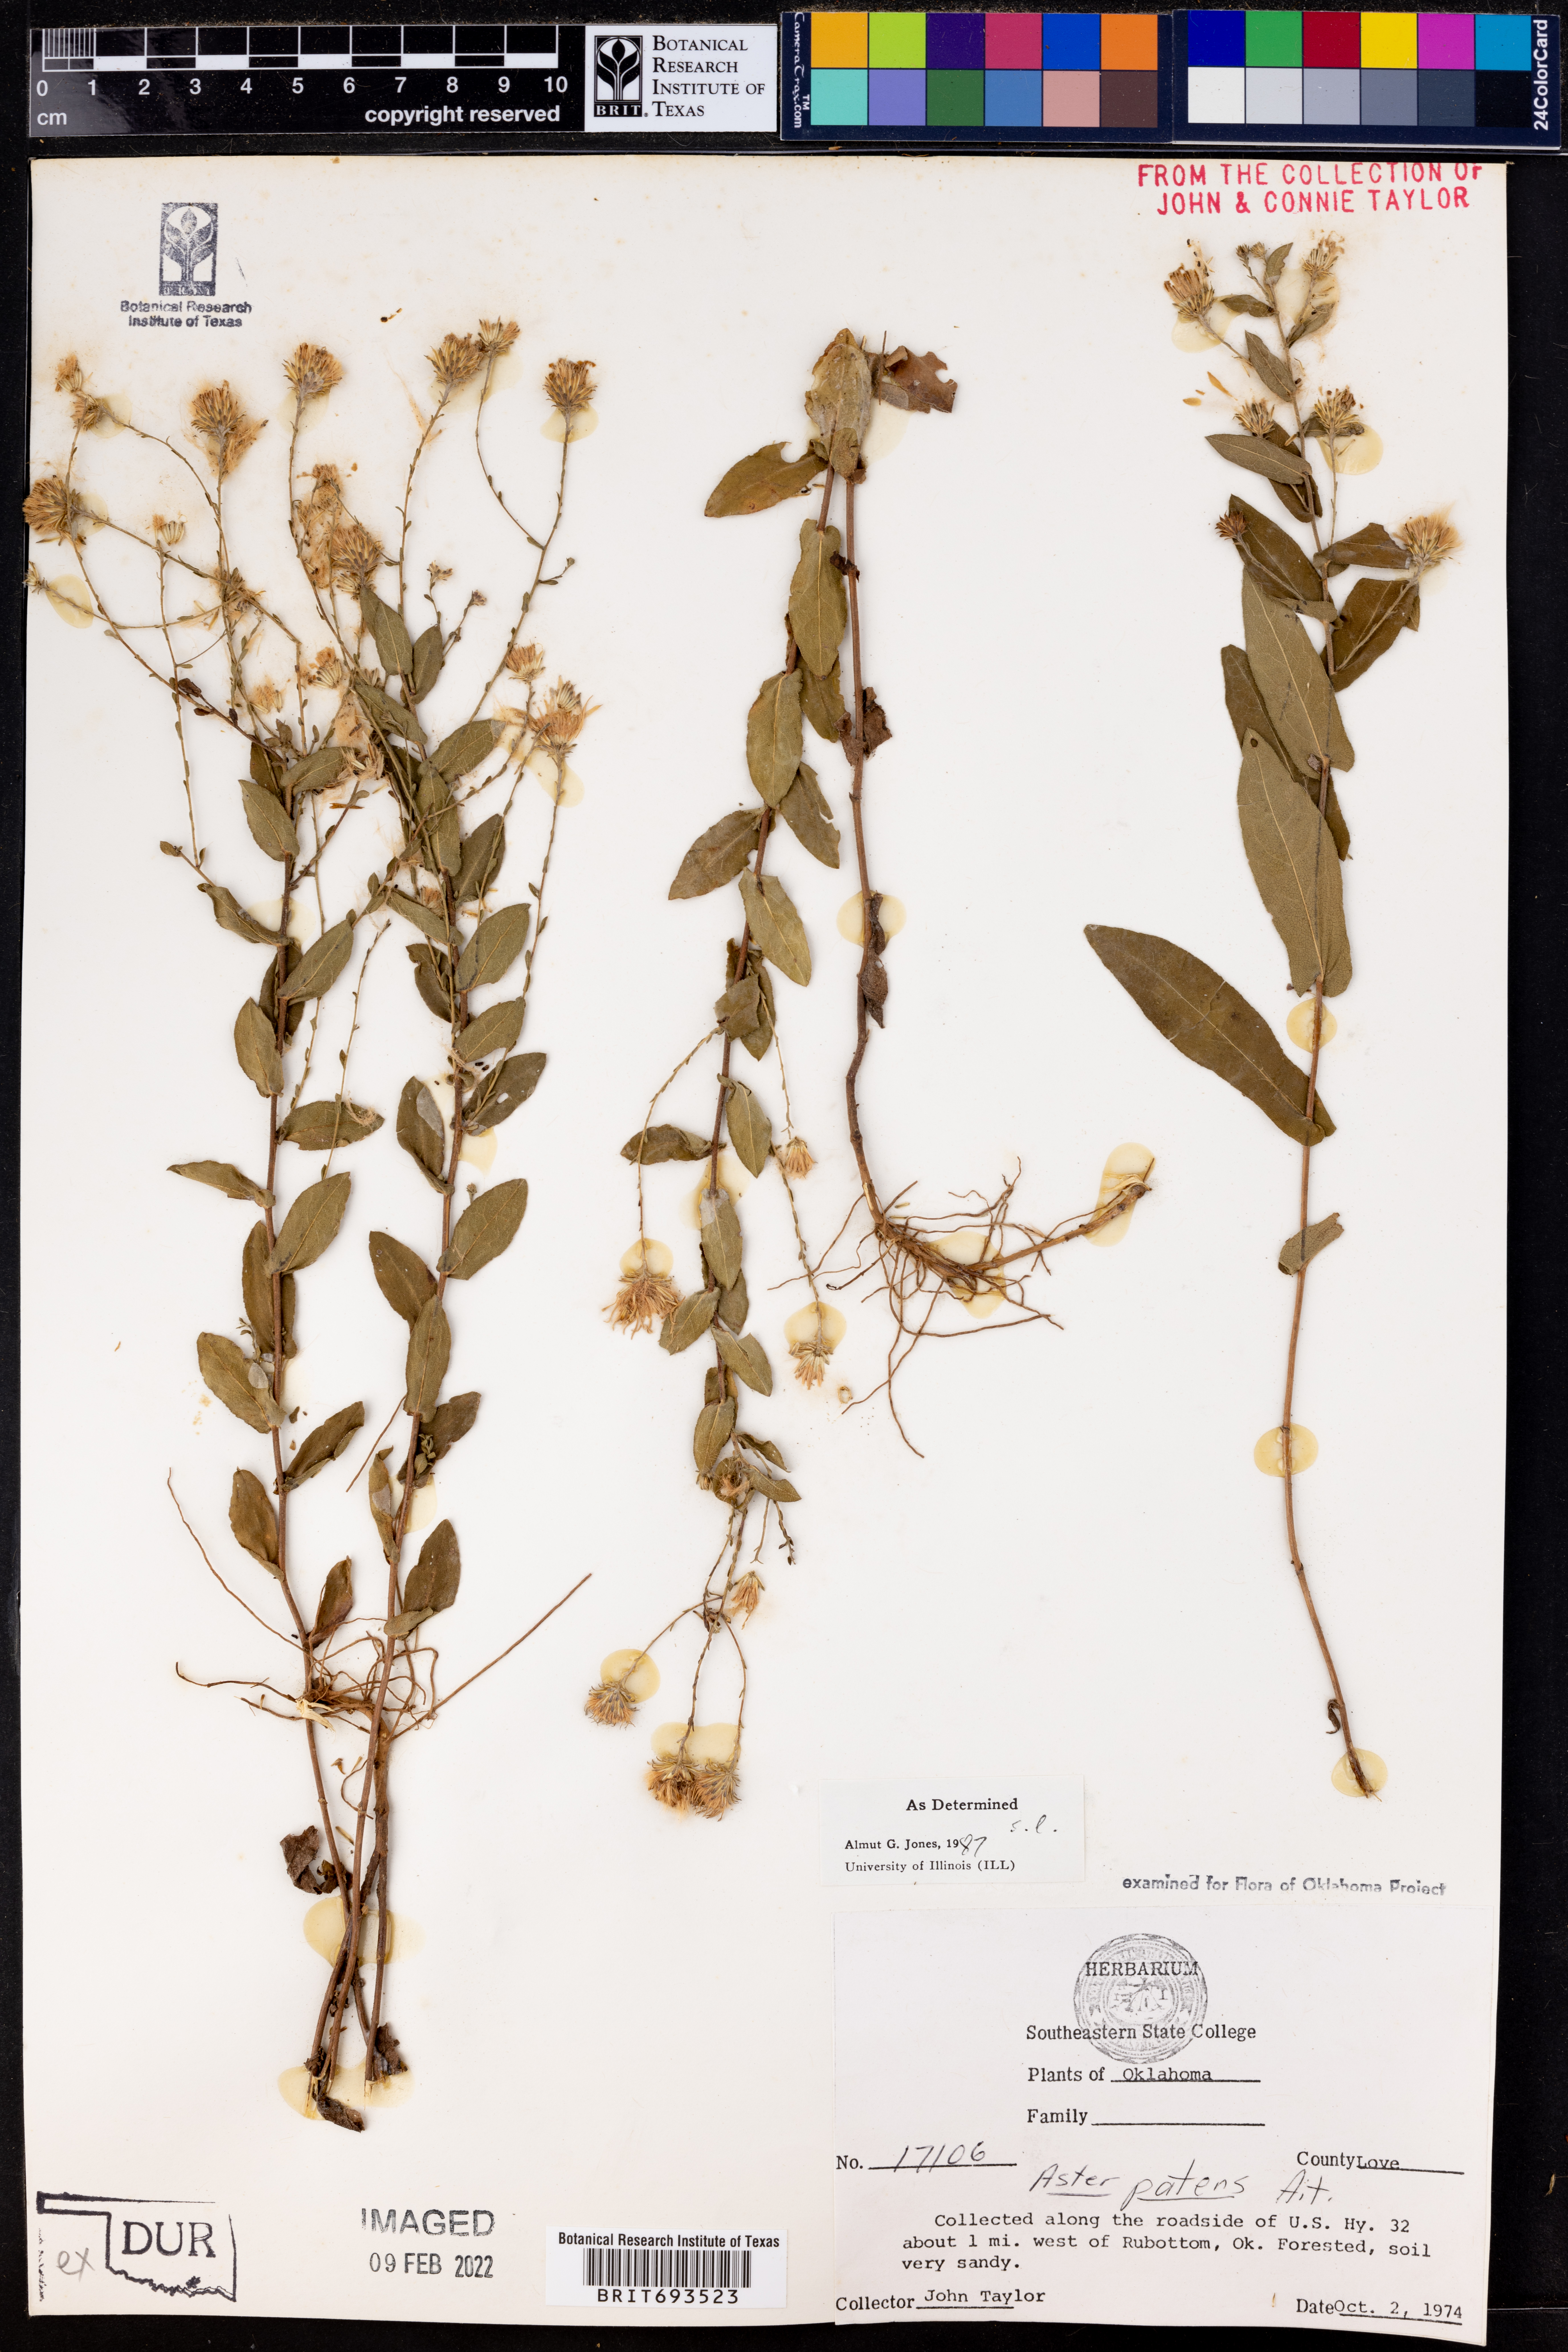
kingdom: Plantae
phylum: Tracheophyta
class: Magnoliopsida
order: Asterales
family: Asteraceae
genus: Symphyotrichum
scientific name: Symphyotrichum patens
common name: Late purple aster
